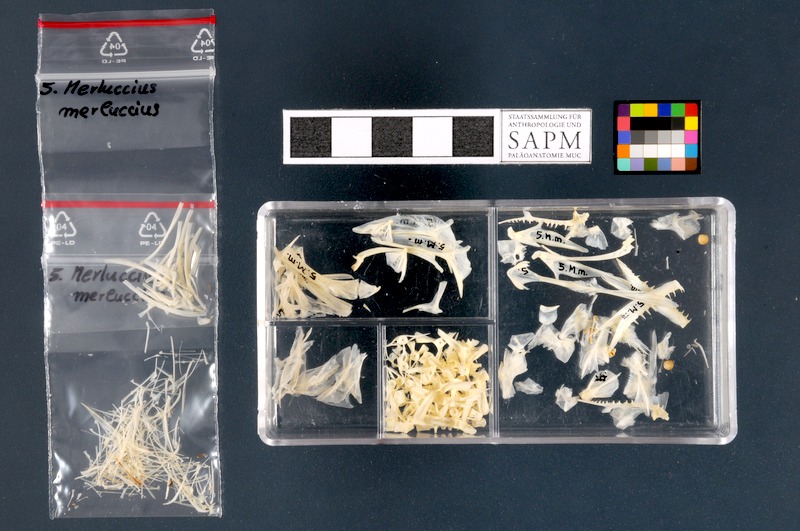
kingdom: Animalia
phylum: Chordata
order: Gadiformes
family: Merlucciidae
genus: Merluccius
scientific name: Merluccius merluccius
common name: European hake
